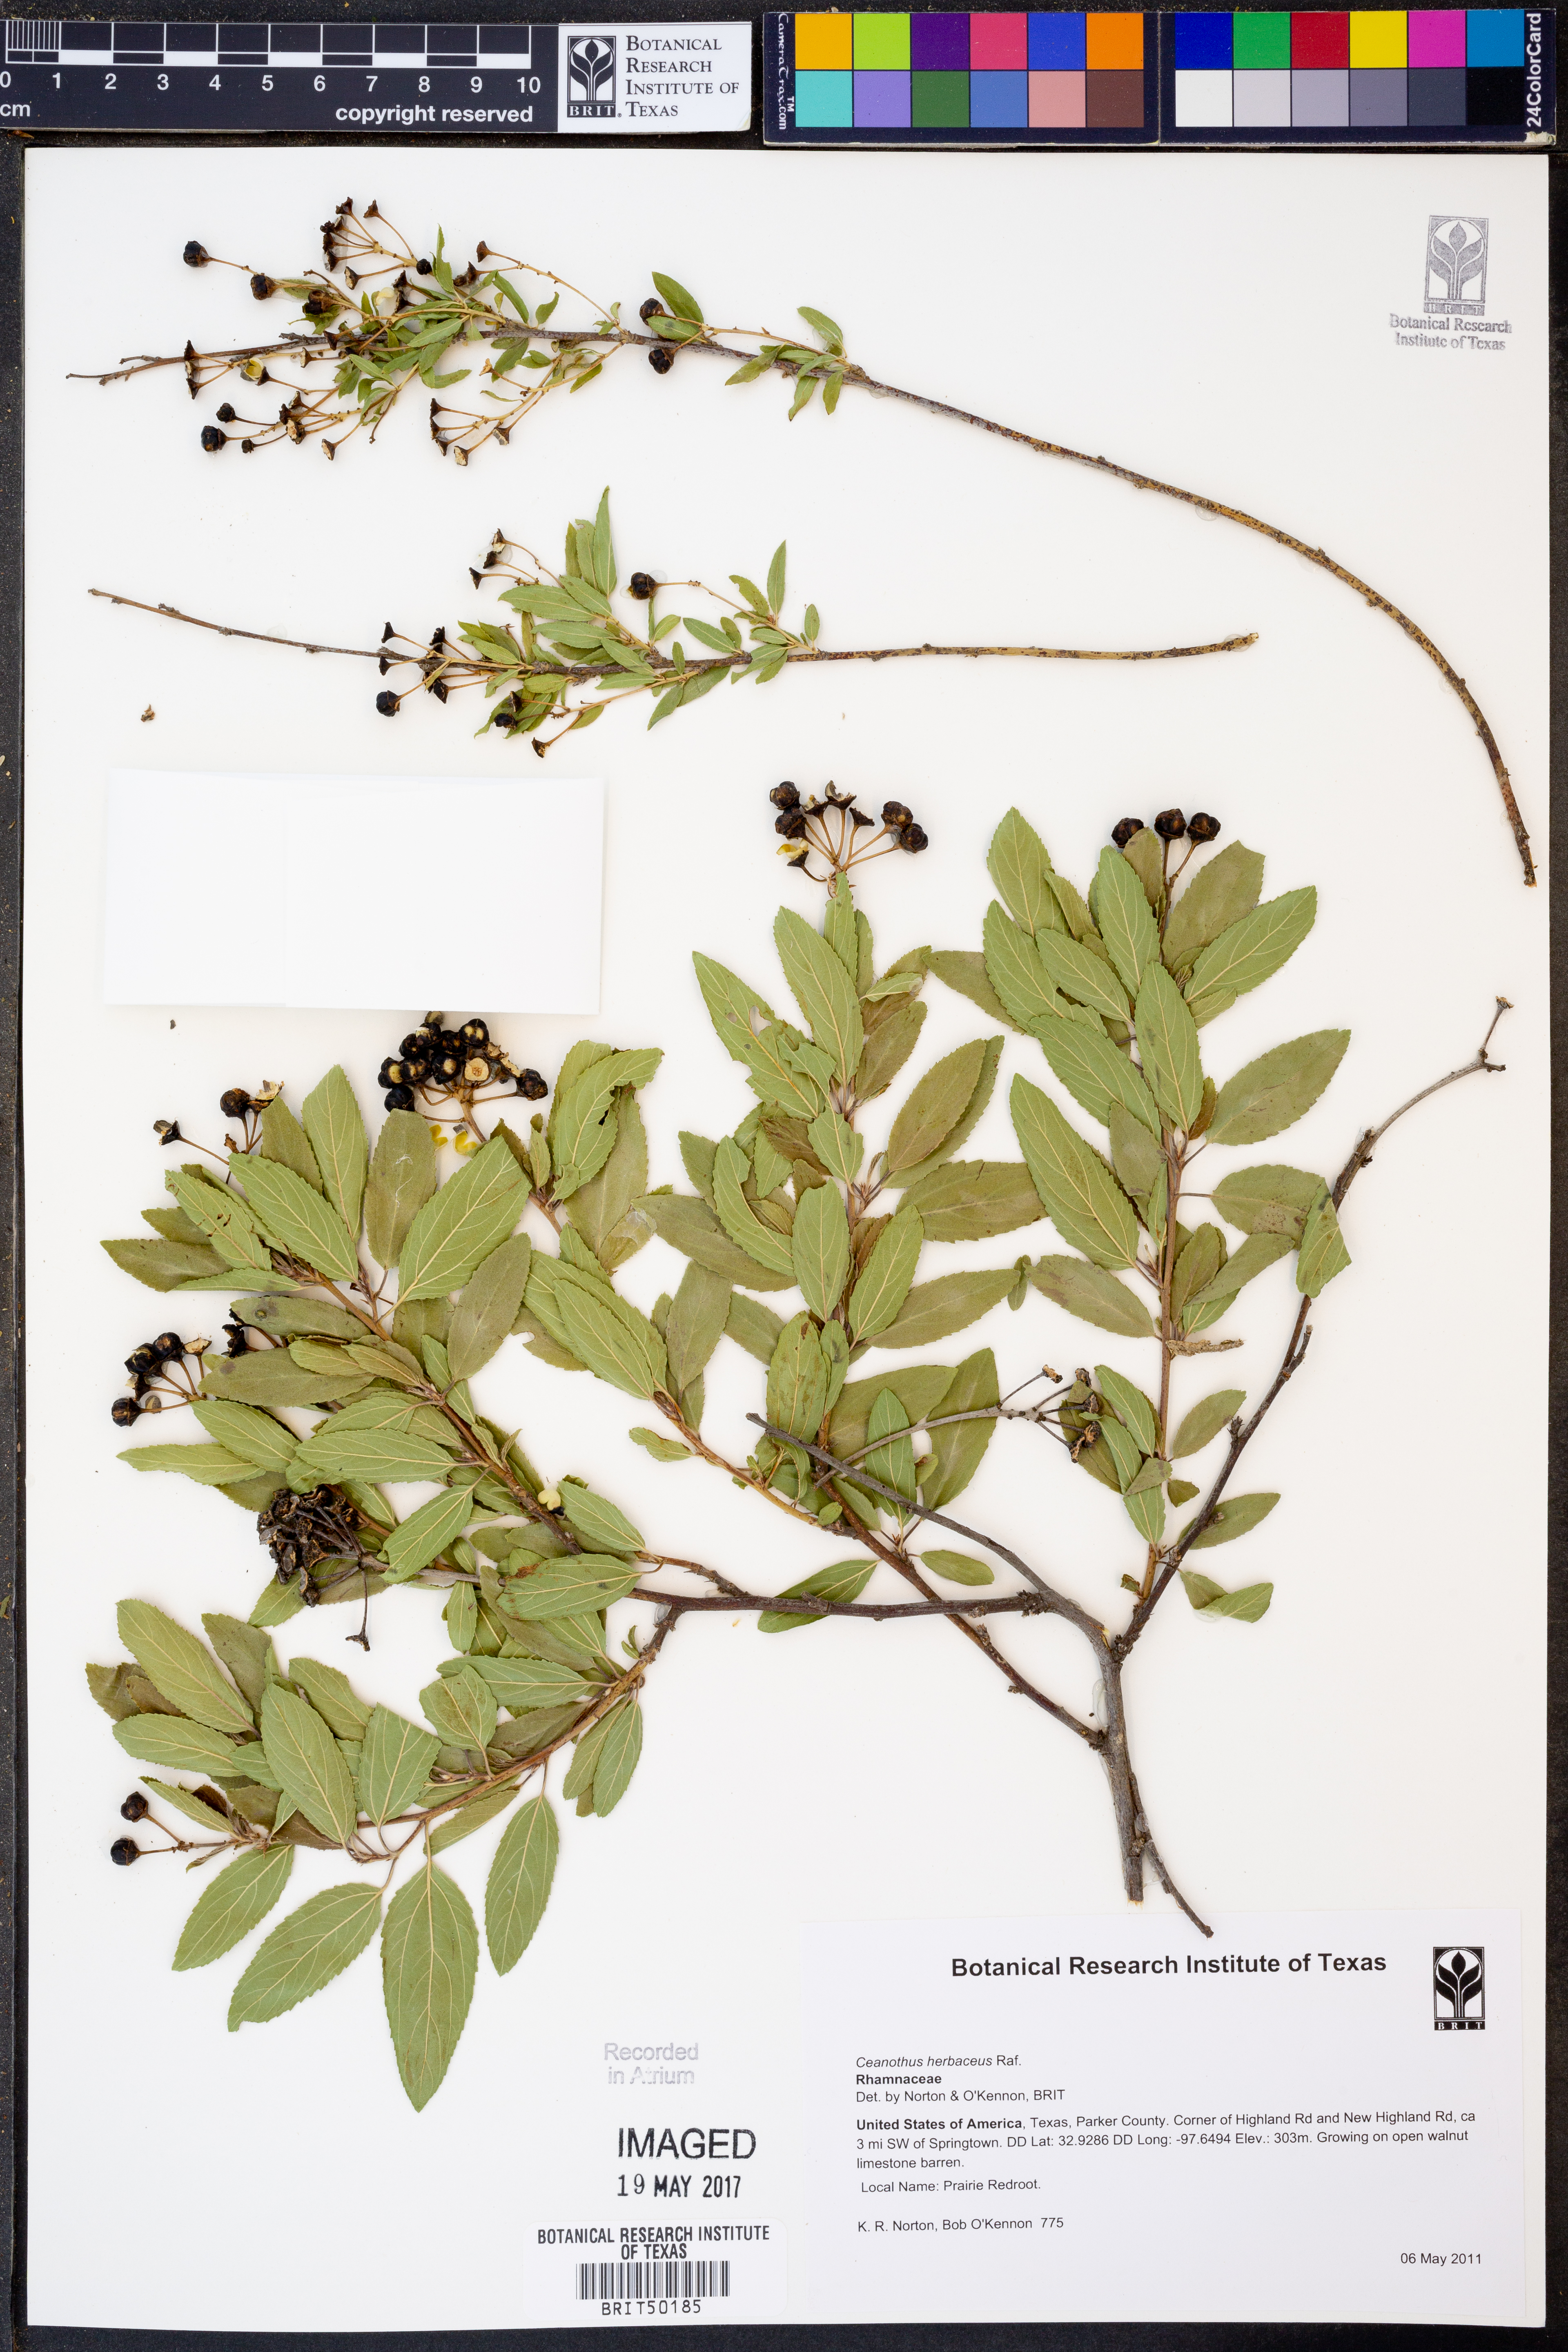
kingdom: Plantae
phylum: Tracheophyta
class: Magnoliopsida
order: Rosales
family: Rhamnaceae
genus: Ceanothus
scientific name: Ceanothus herbaceus
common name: Inland ceanothus
